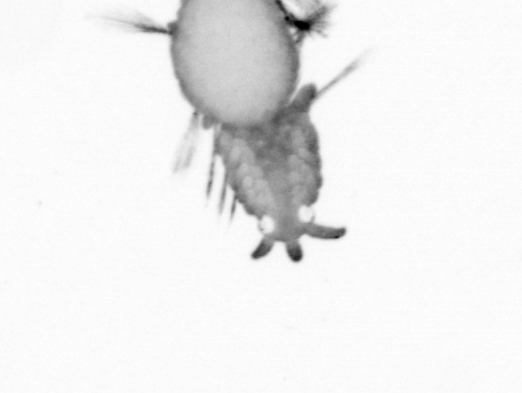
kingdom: Animalia
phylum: Annelida
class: Polychaeta
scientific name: Polychaeta
